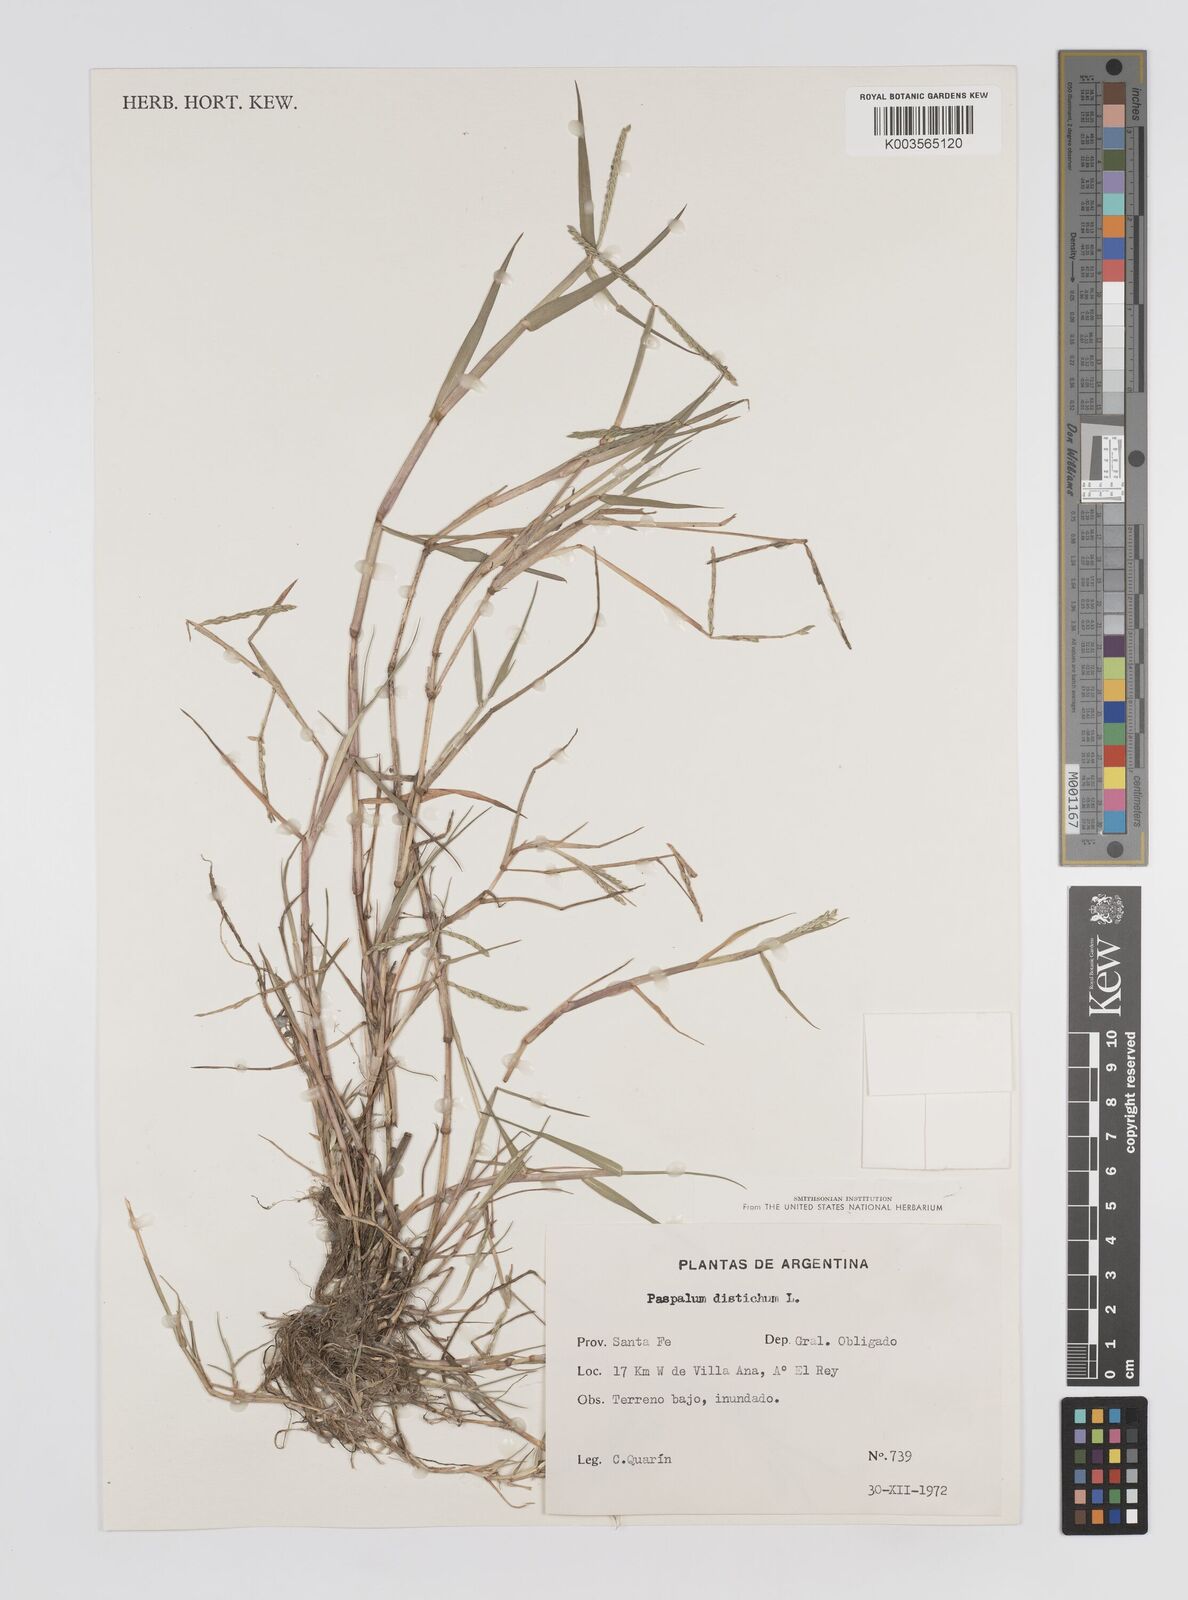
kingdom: Plantae
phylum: Tracheophyta
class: Liliopsida
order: Poales
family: Poaceae
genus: Paspalum
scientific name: Paspalum distichum
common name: Knotgrass
